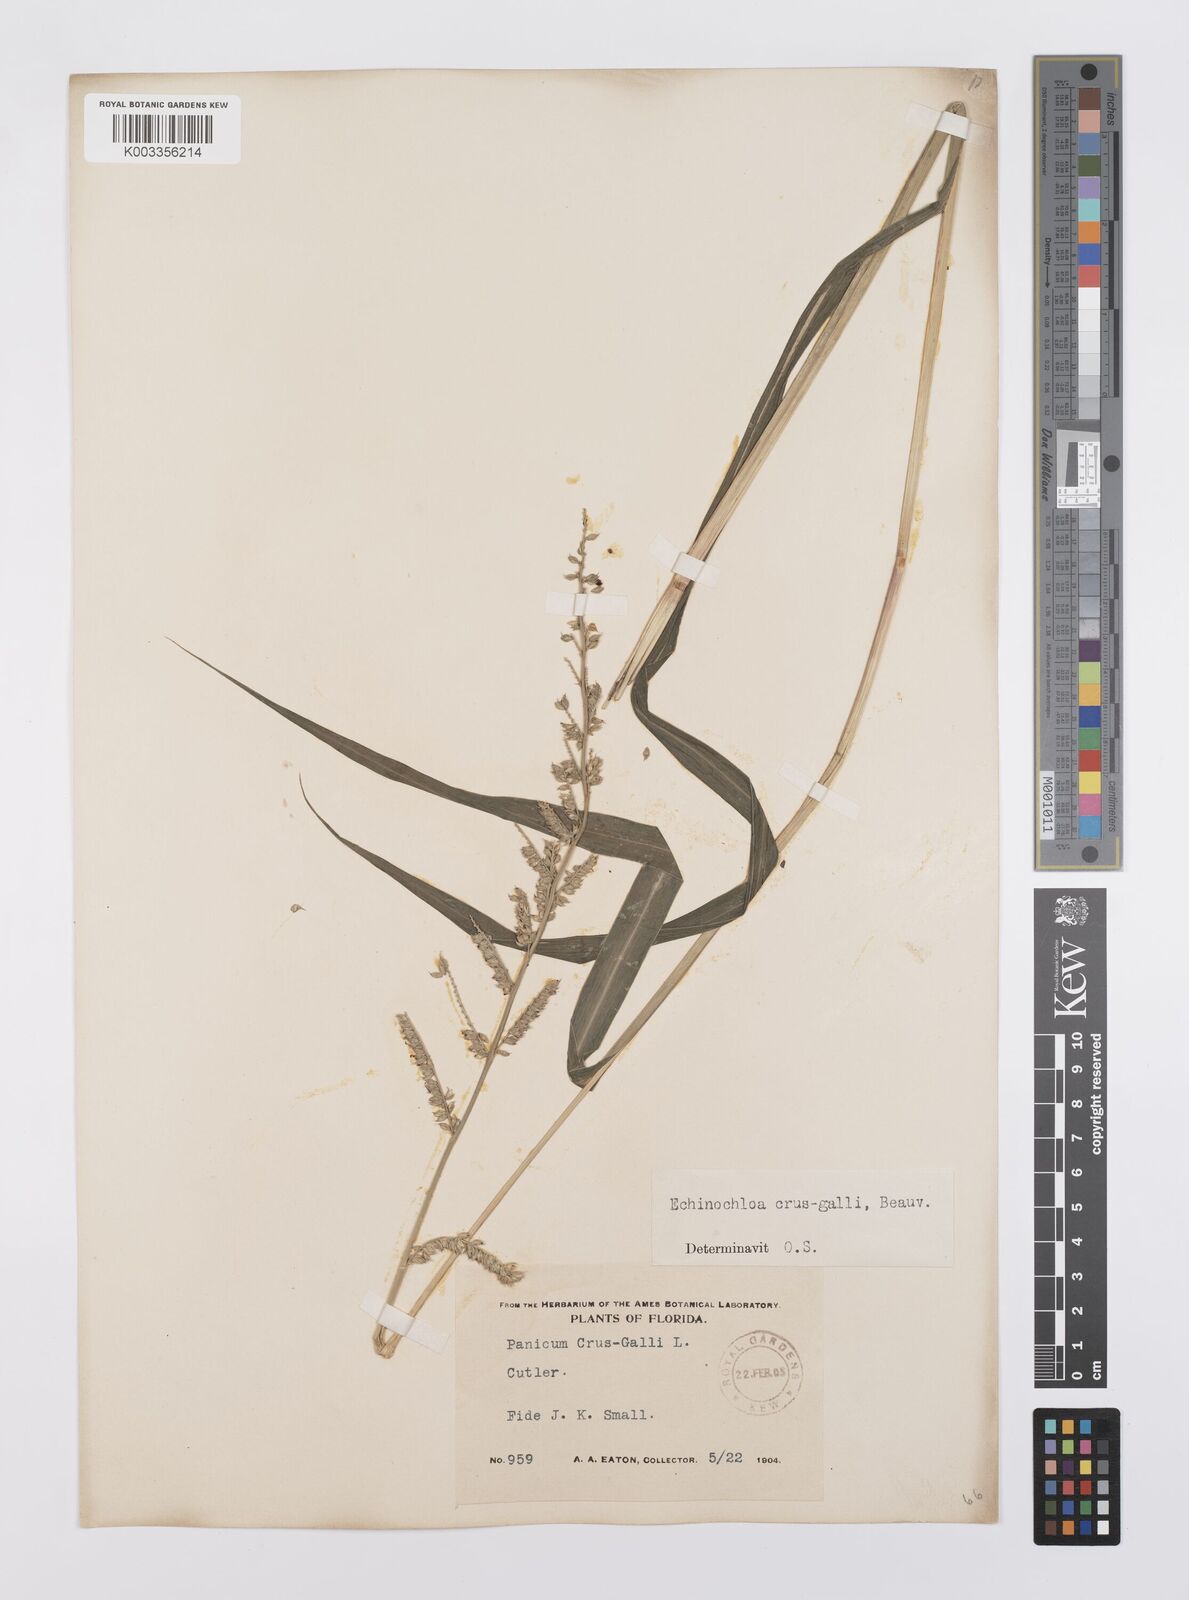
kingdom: Plantae
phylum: Tracheophyta
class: Liliopsida
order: Poales
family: Poaceae
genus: Echinochloa
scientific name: Echinochloa crus-galli
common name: Cockspur
